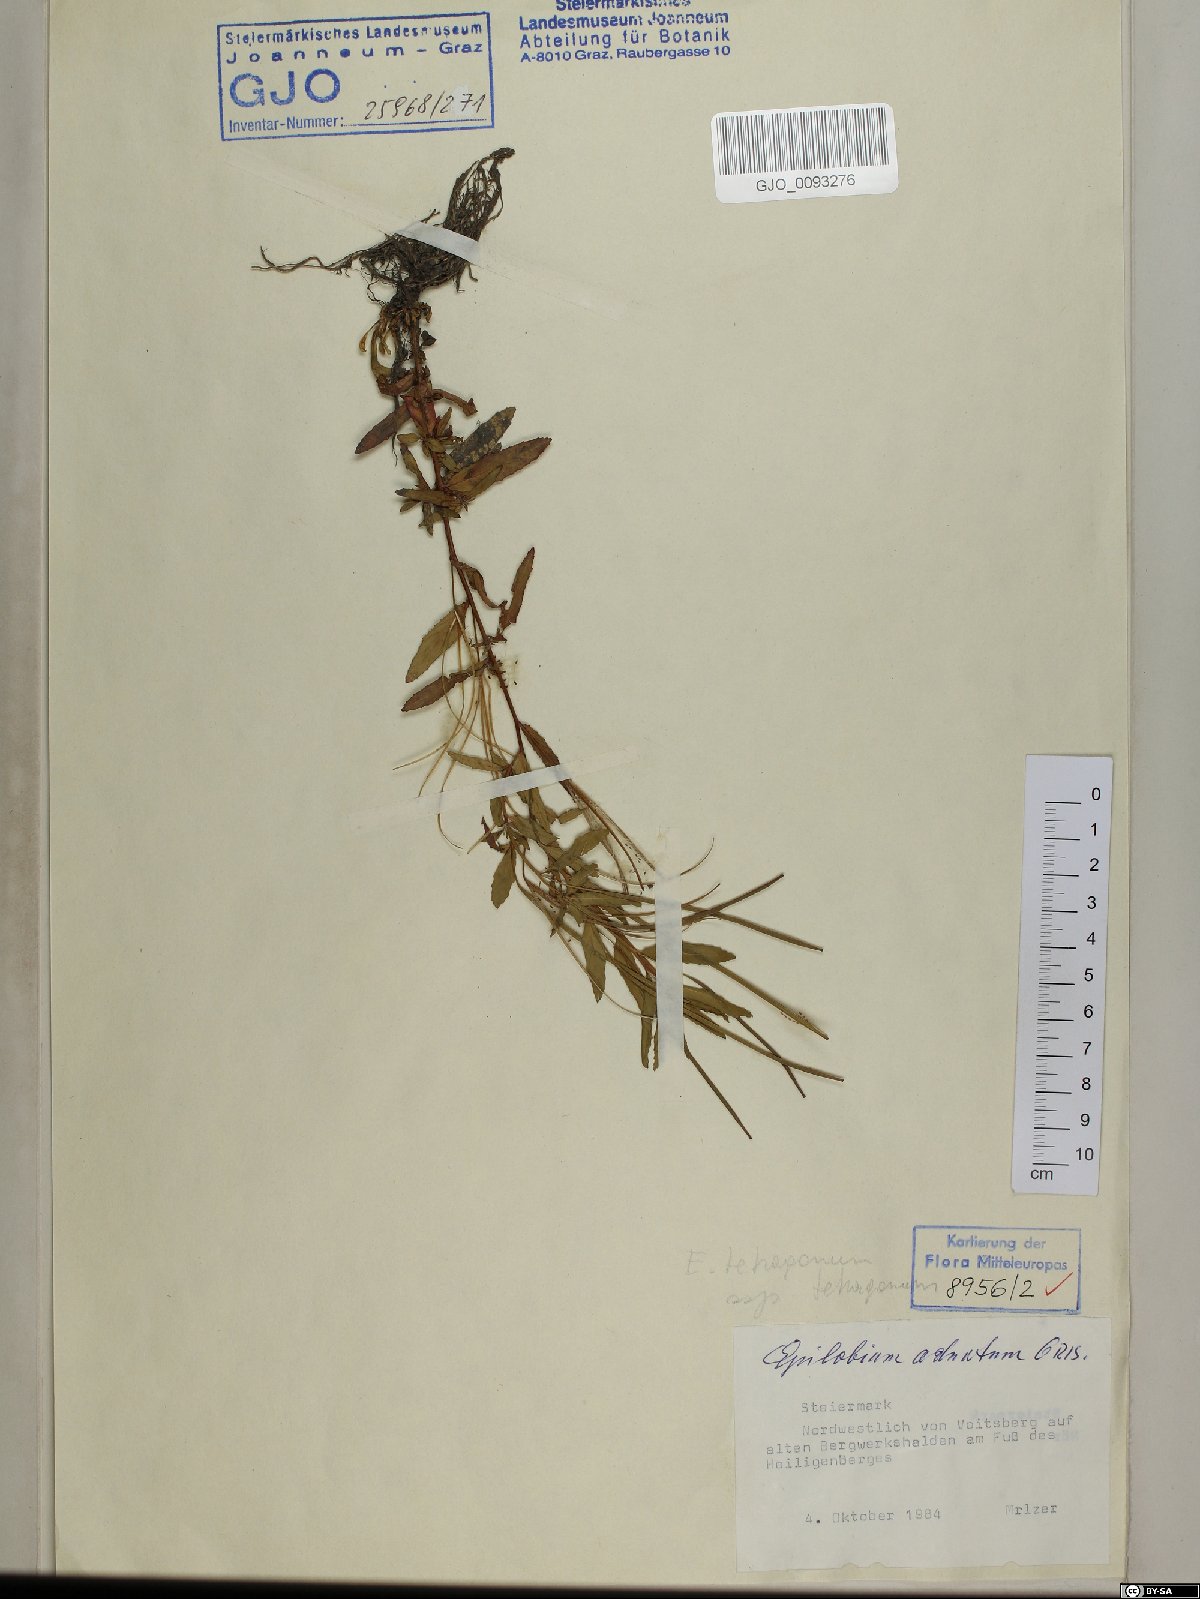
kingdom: Plantae
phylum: Tracheophyta
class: Magnoliopsida
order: Myrtales
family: Onagraceae
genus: Epilobium
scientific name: Epilobium tetragonum
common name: Square-stemmed willowherb
